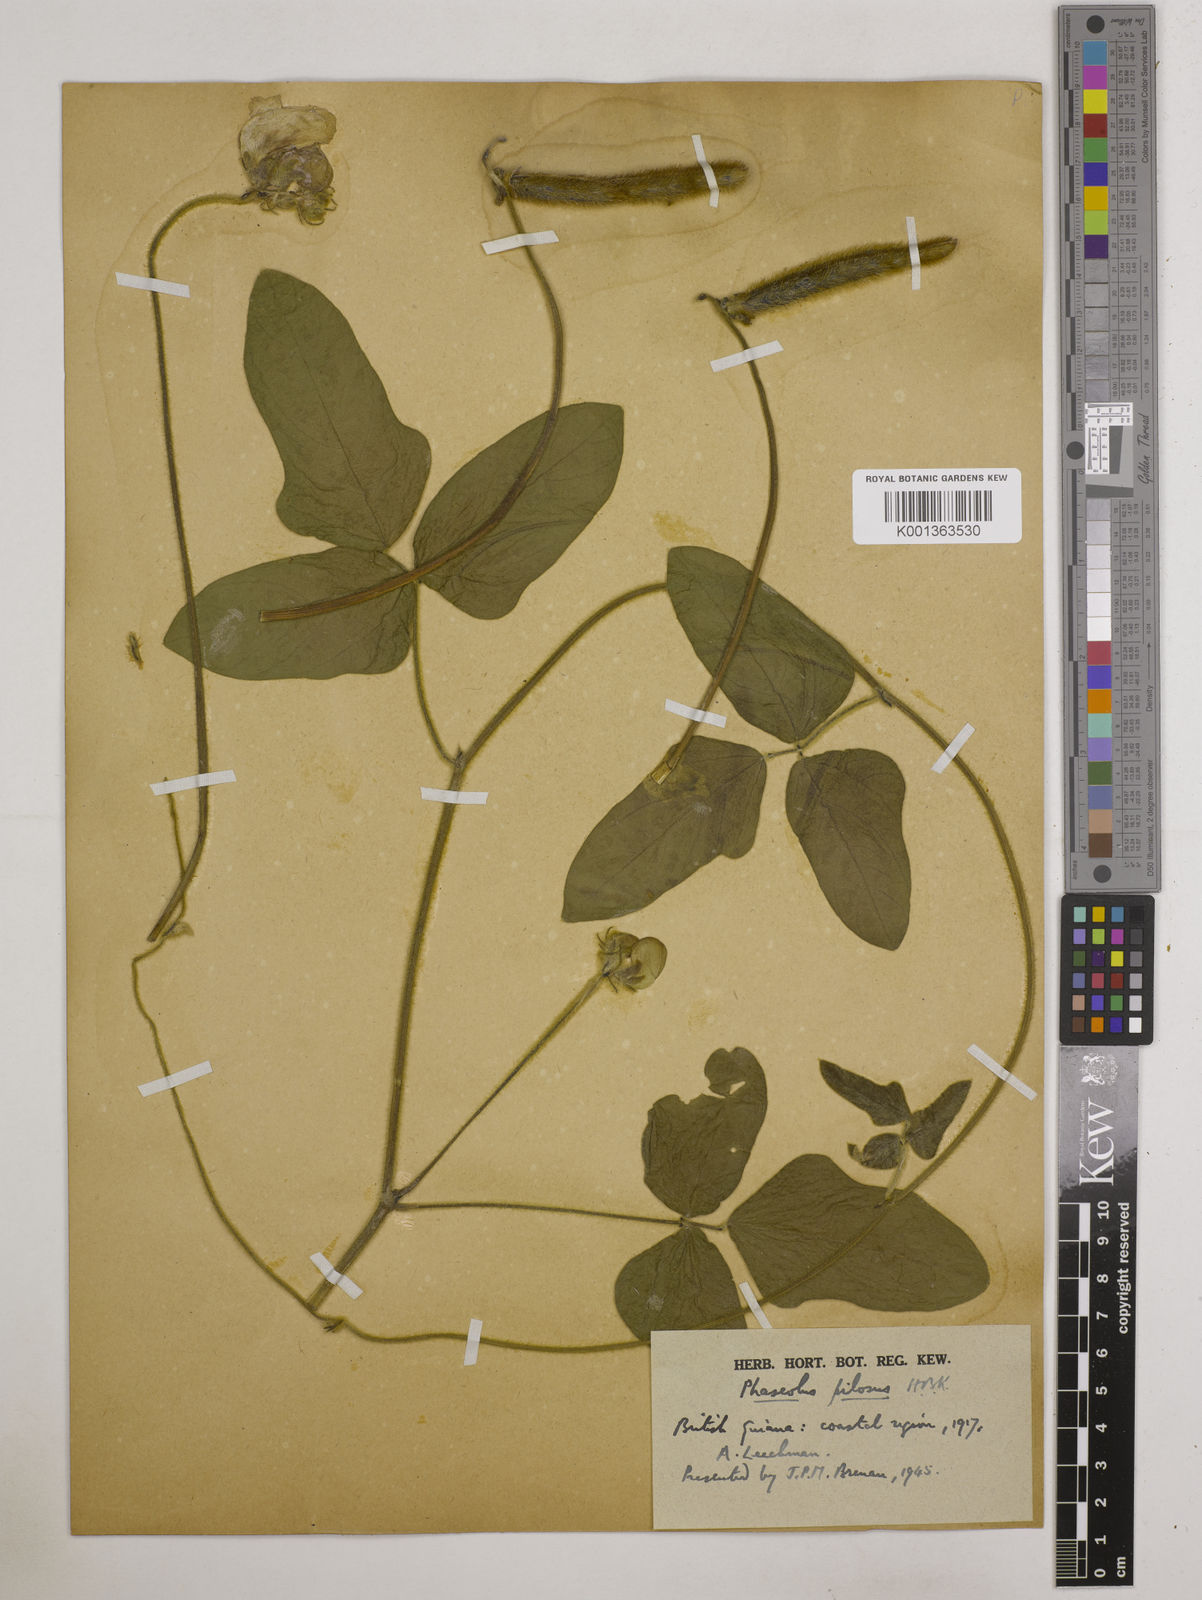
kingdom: Plantae
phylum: Tracheophyta
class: Magnoliopsida
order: Fabales
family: Fabaceae
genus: Vigna
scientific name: Vigna lasiocarpa
